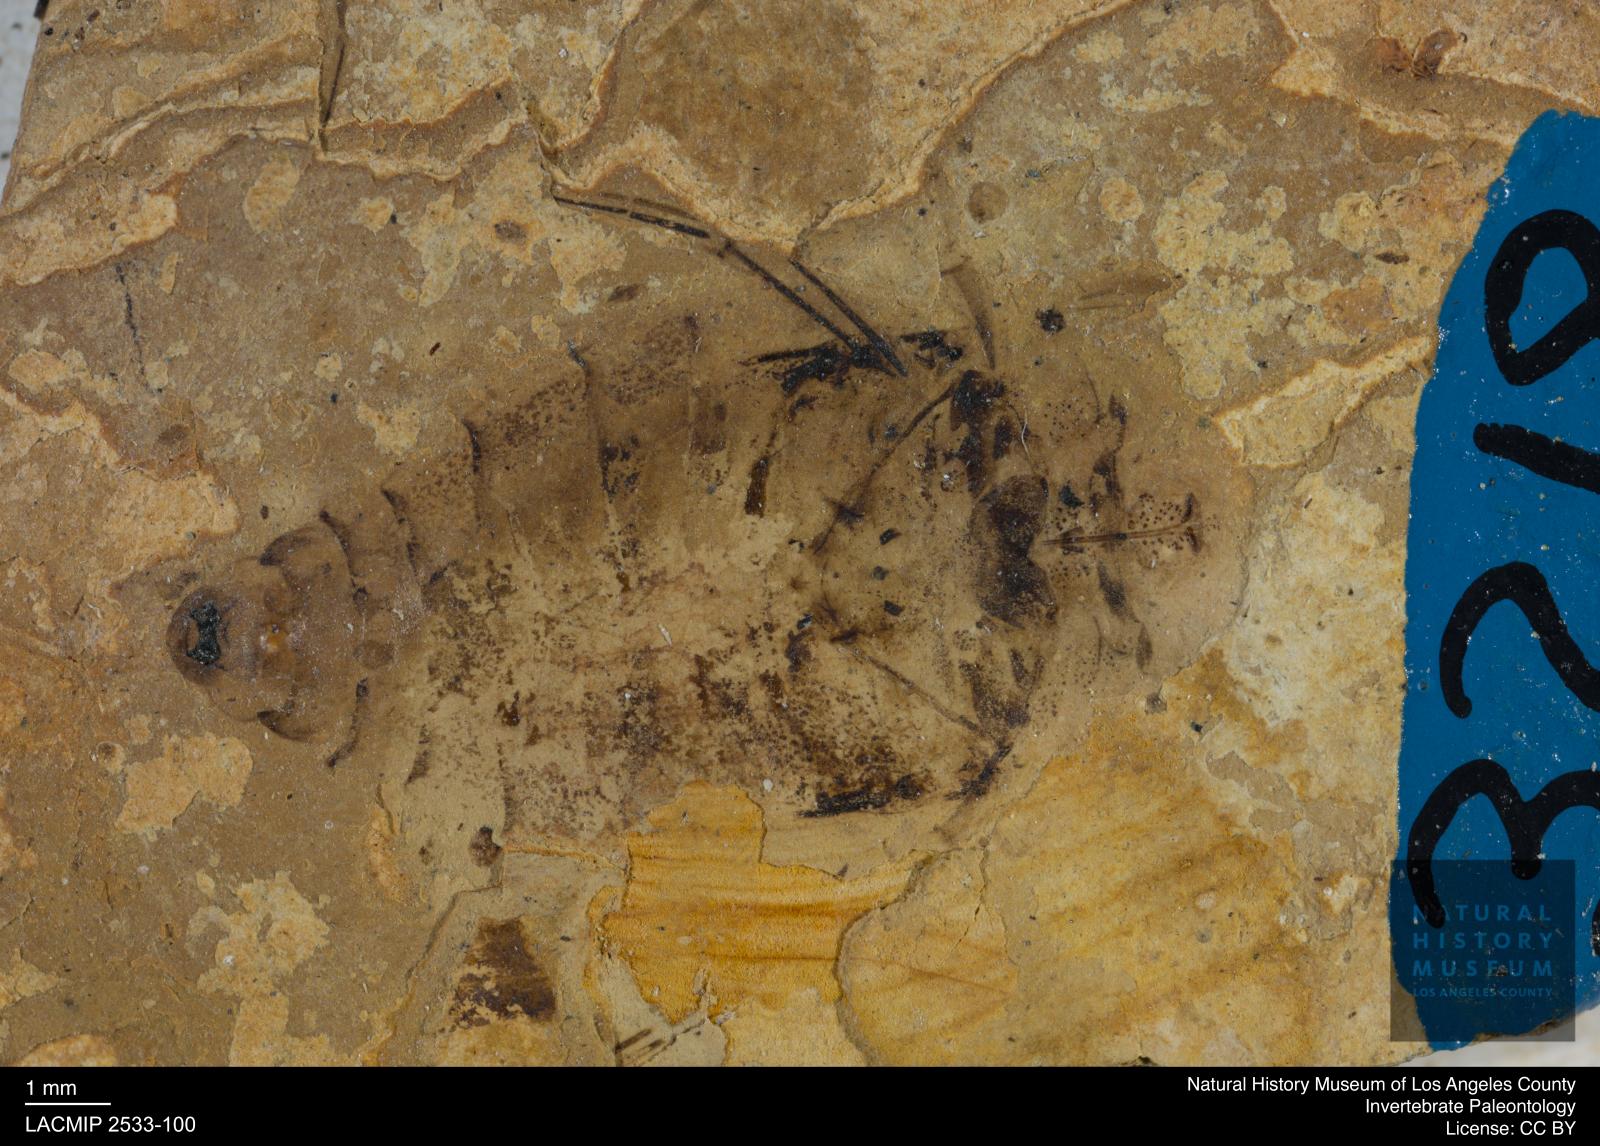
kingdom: Animalia
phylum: Arthropoda
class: Insecta
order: Hemiptera
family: Naucoridae
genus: Naucoris
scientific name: Naucoris rottensis
